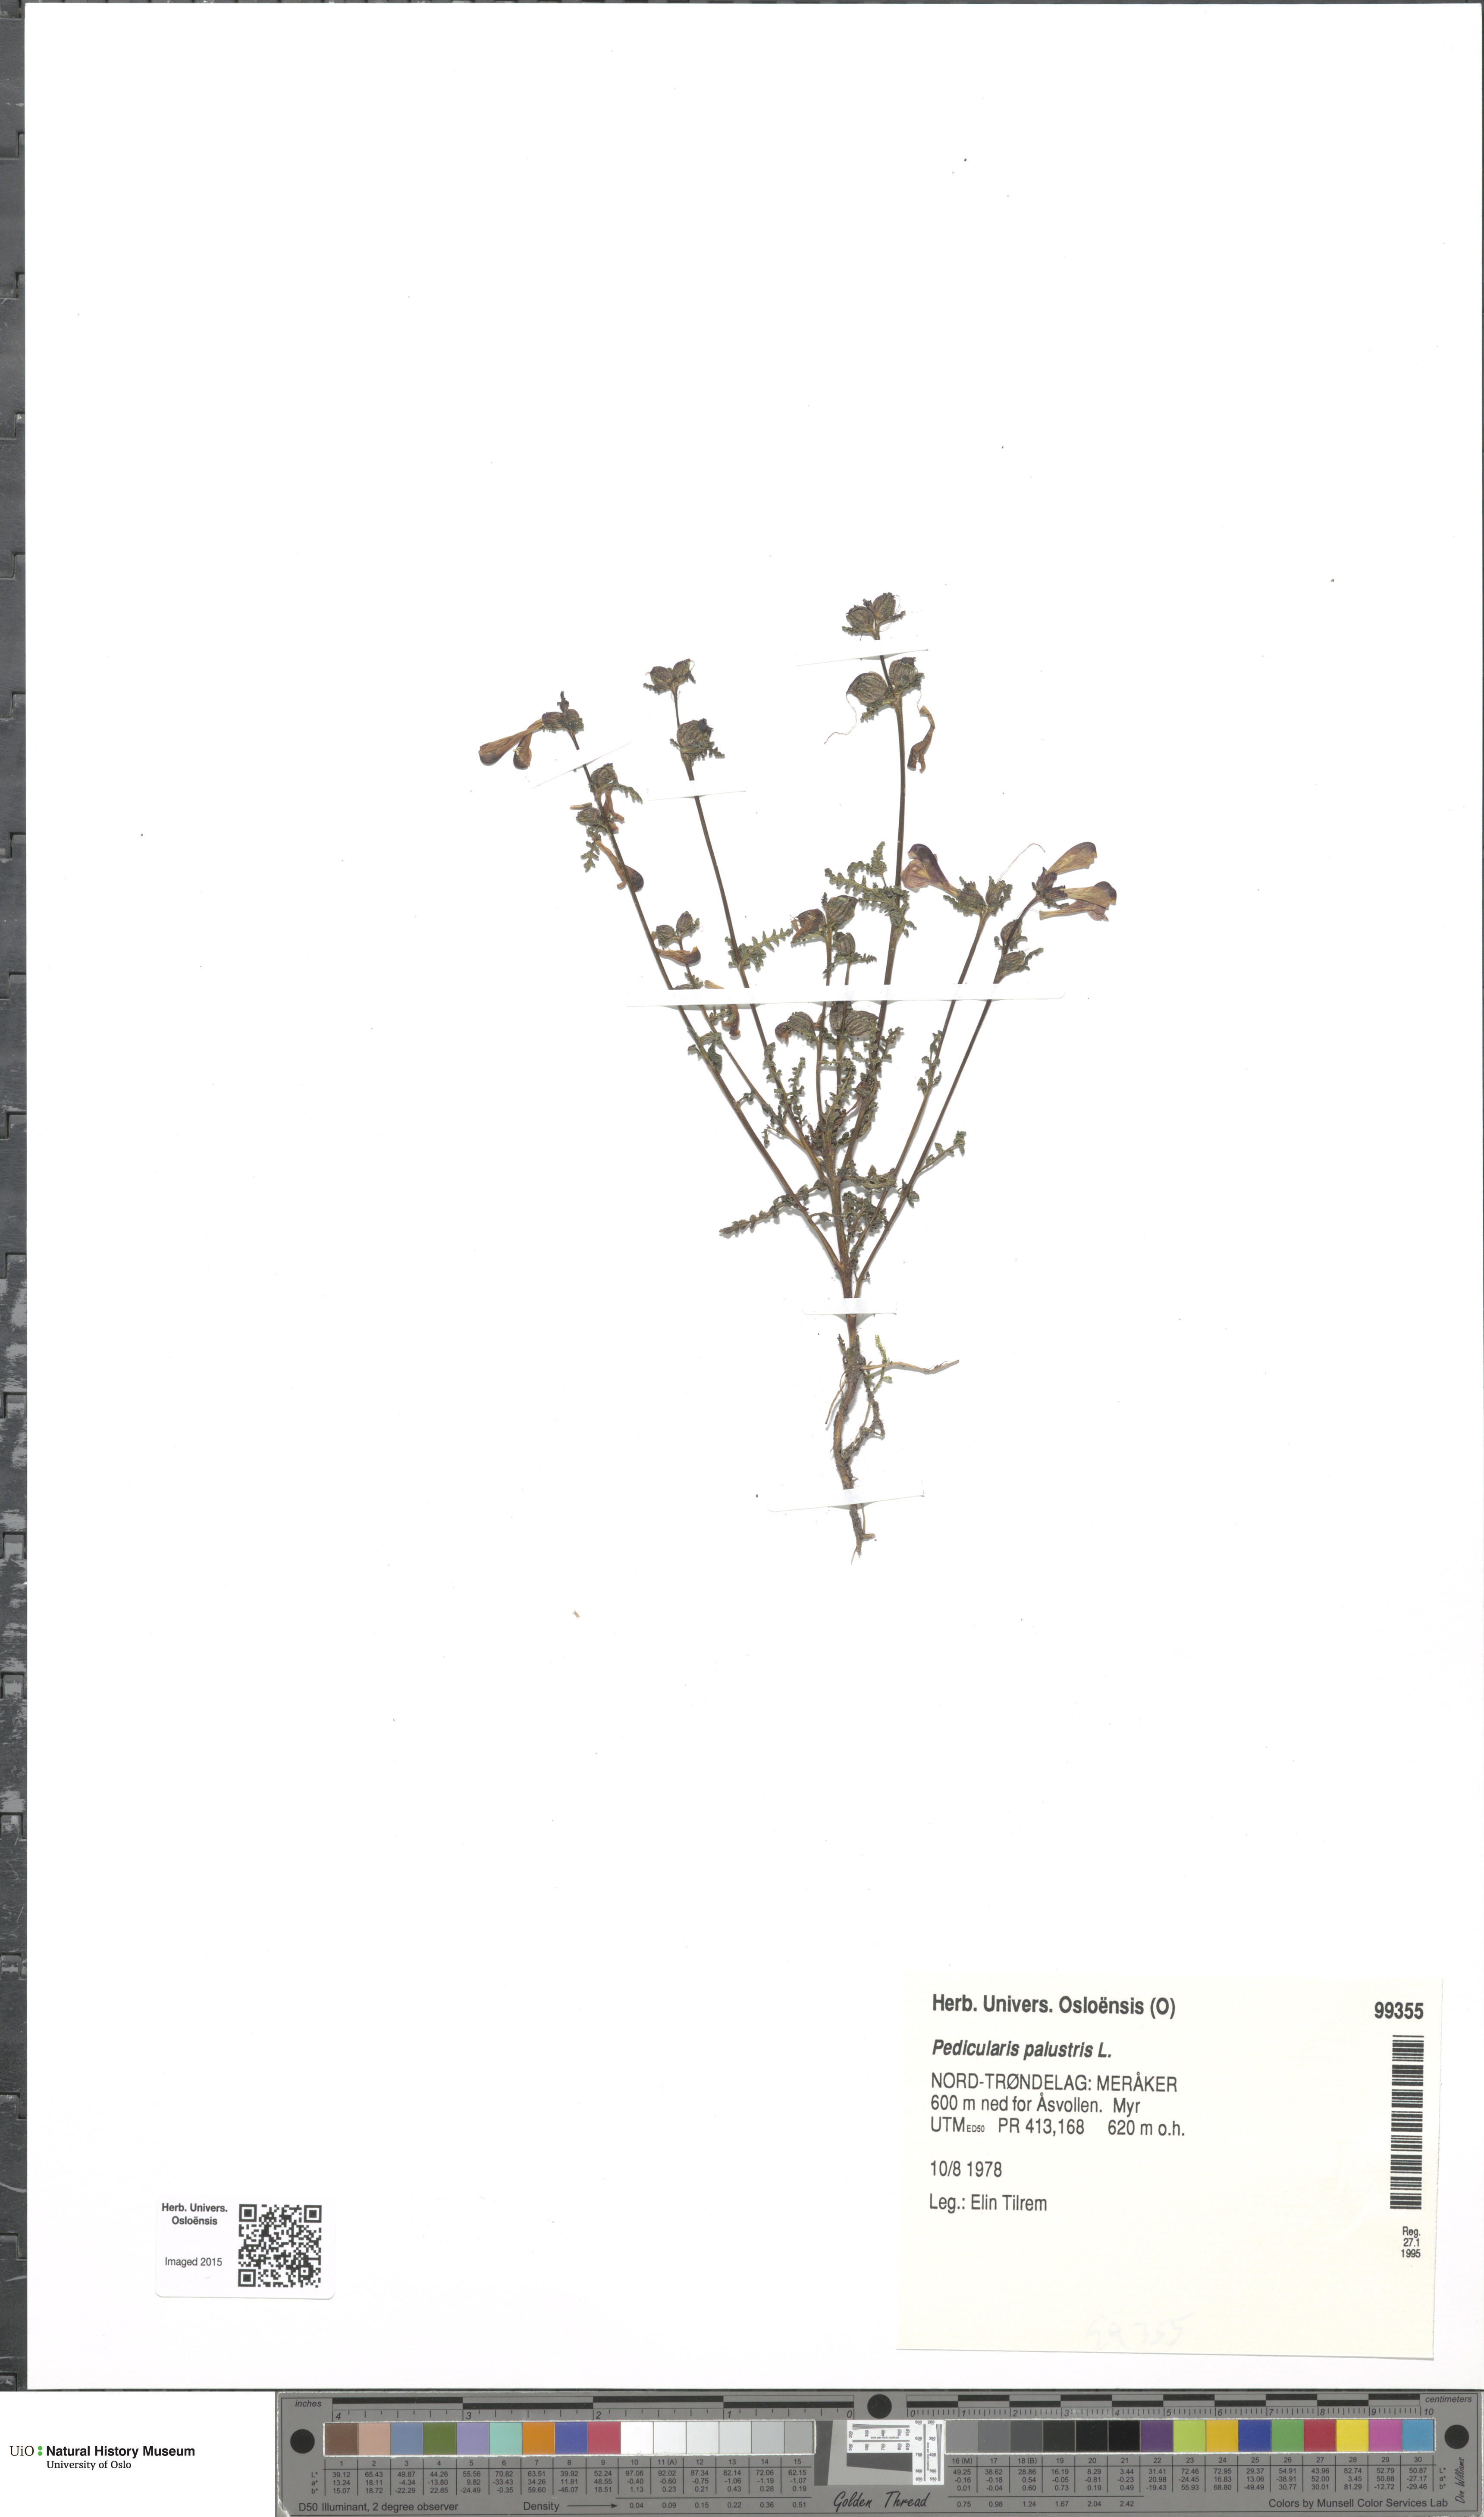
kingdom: Plantae
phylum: Tracheophyta
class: Magnoliopsida
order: Lamiales
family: Orobanchaceae
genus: Pedicularis
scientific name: Pedicularis palustris
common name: Marsh lousewort
